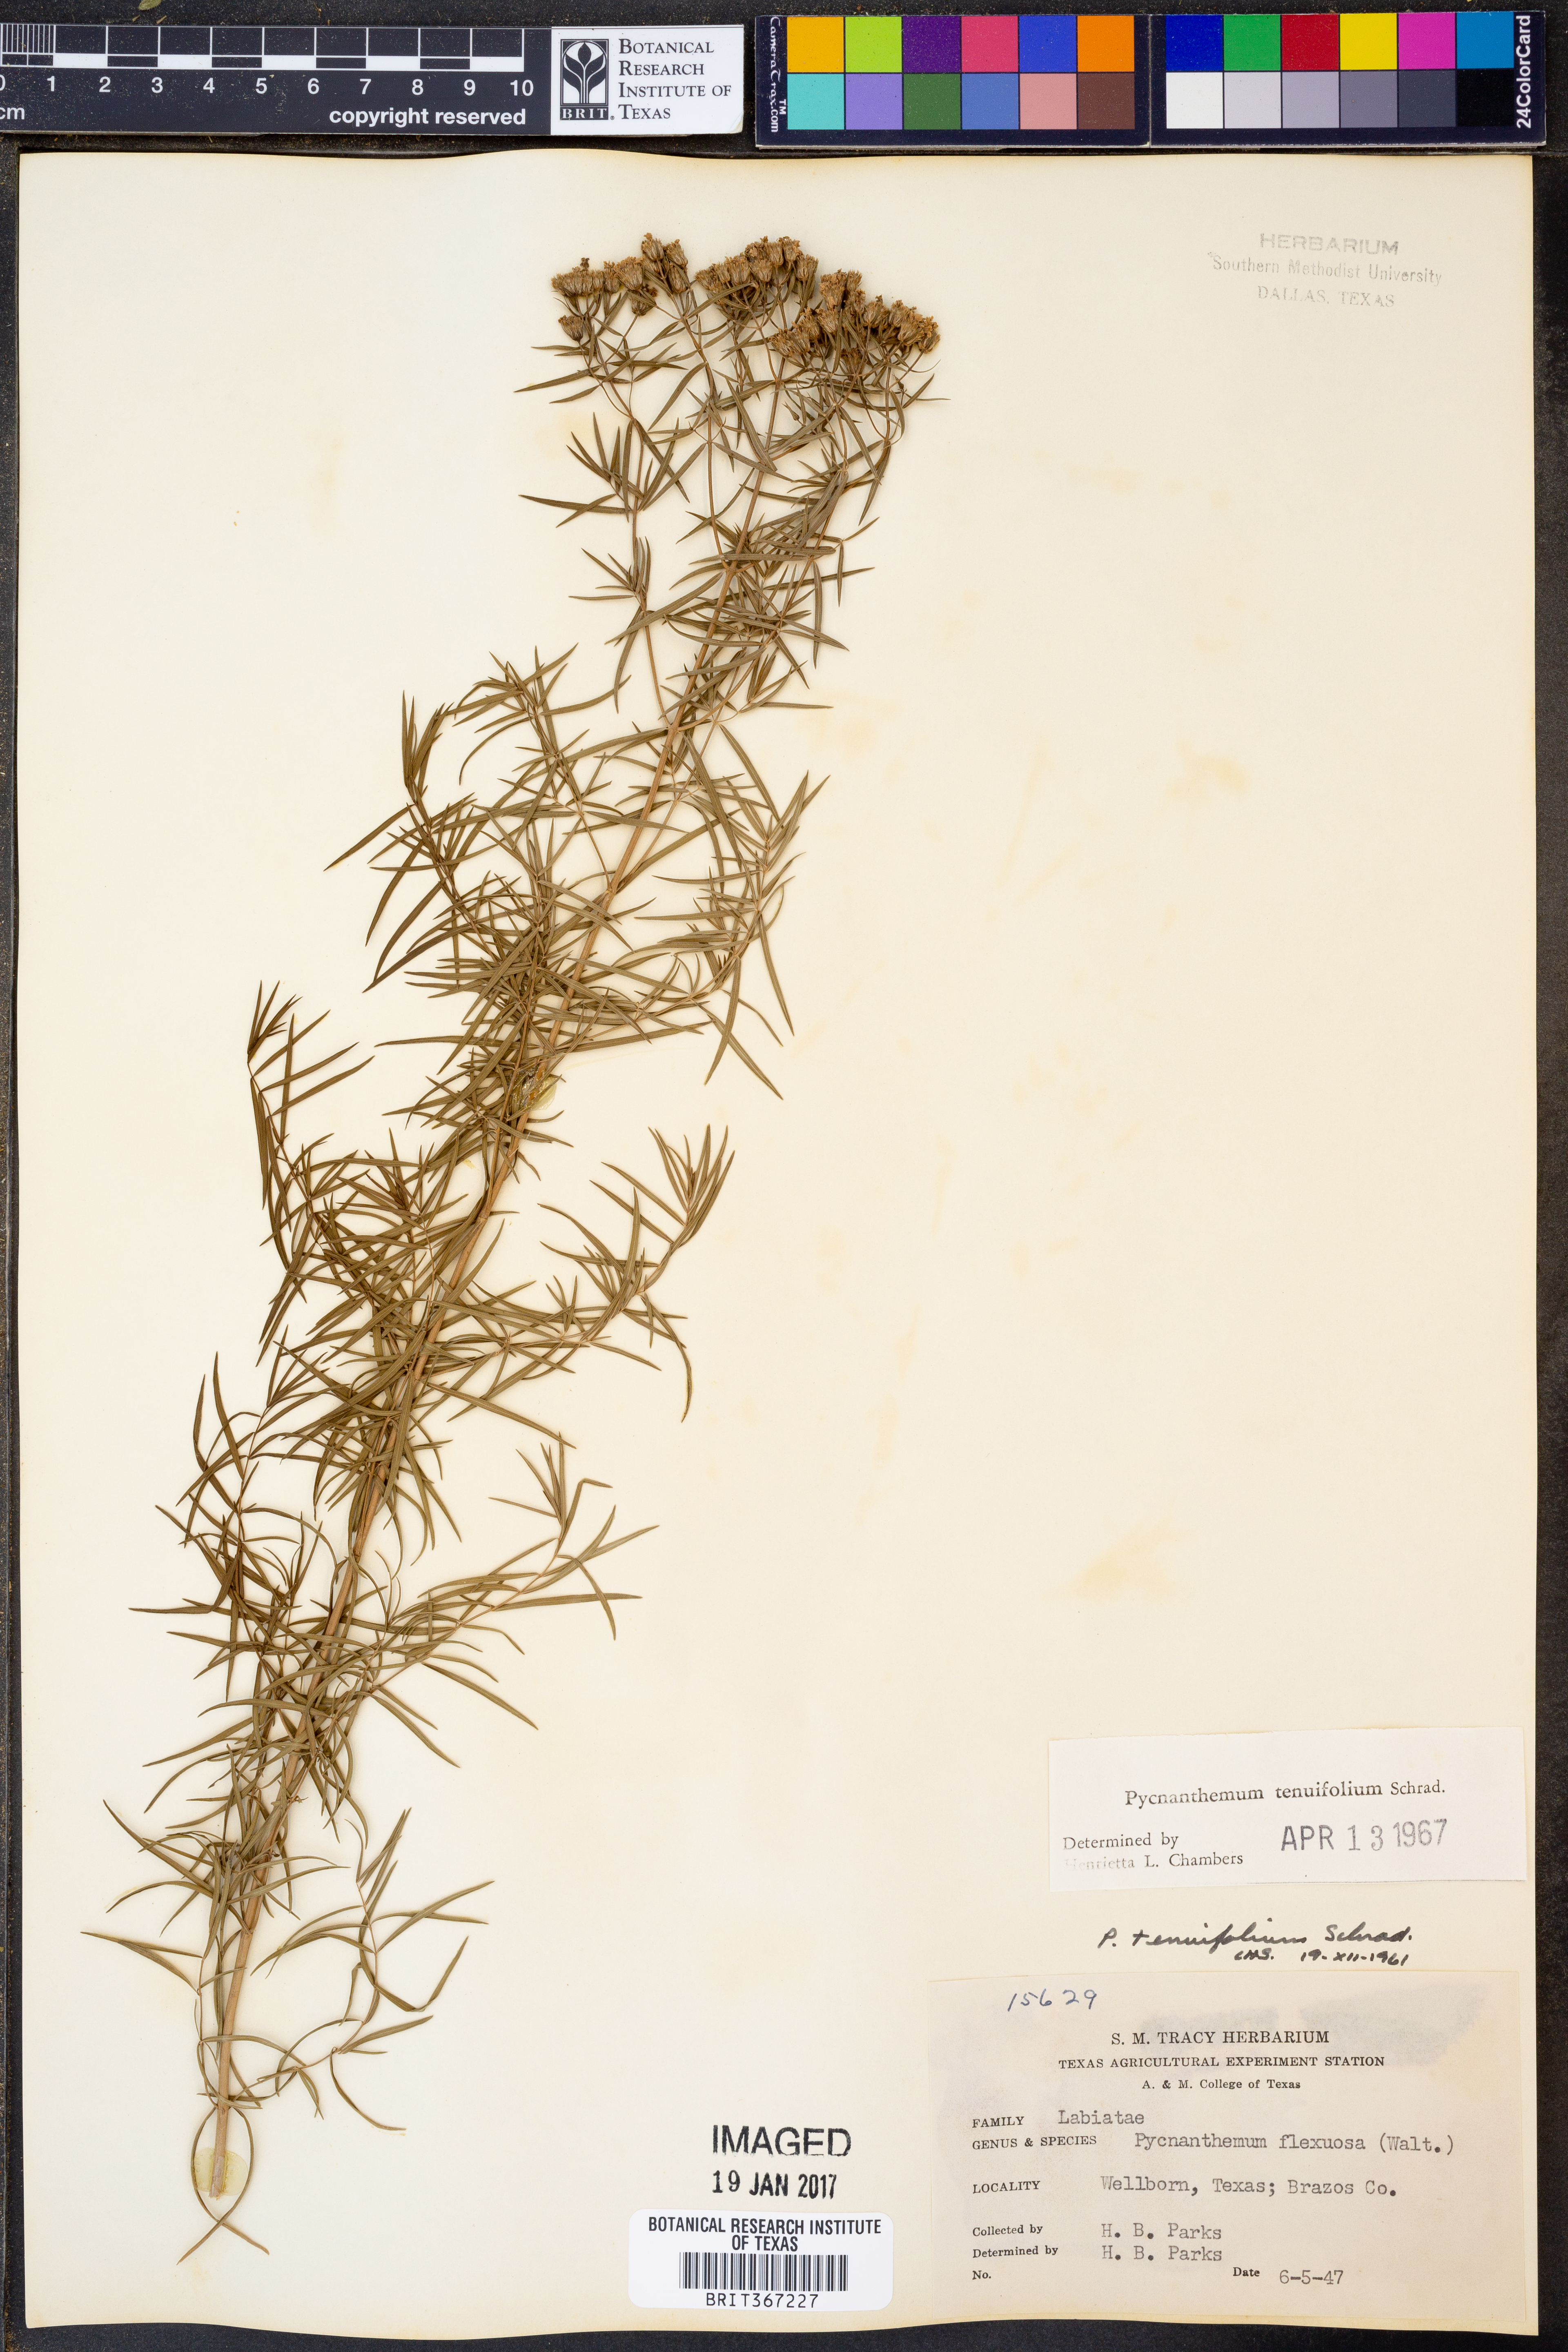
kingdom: Plantae
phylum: Tracheophyta
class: Magnoliopsida
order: Lamiales
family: Lamiaceae
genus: Pycnanthemum
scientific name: Pycnanthemum tenuifolium
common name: Narrow-leaf mountain-mint
